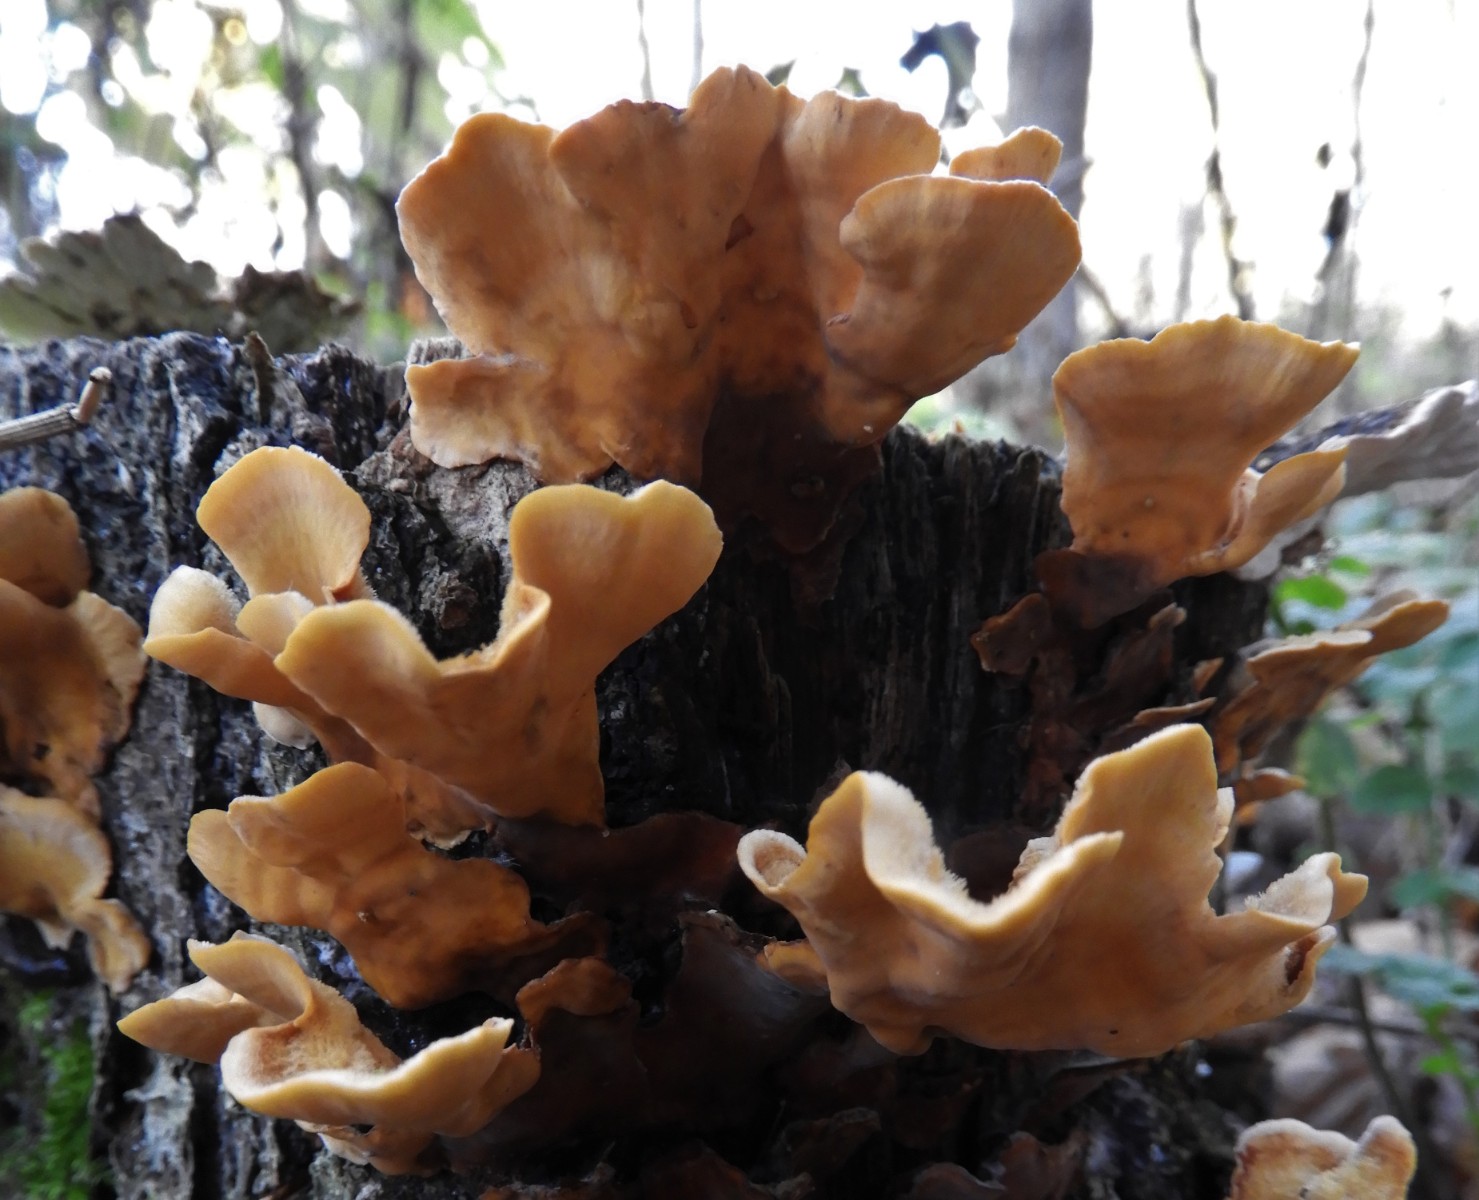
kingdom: Fungi
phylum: Basidiomycota
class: Agaricomycetes
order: Russulales
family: Stereaceae
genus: Stereum
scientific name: Stereum hirsutum
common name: håret lædersvamp
